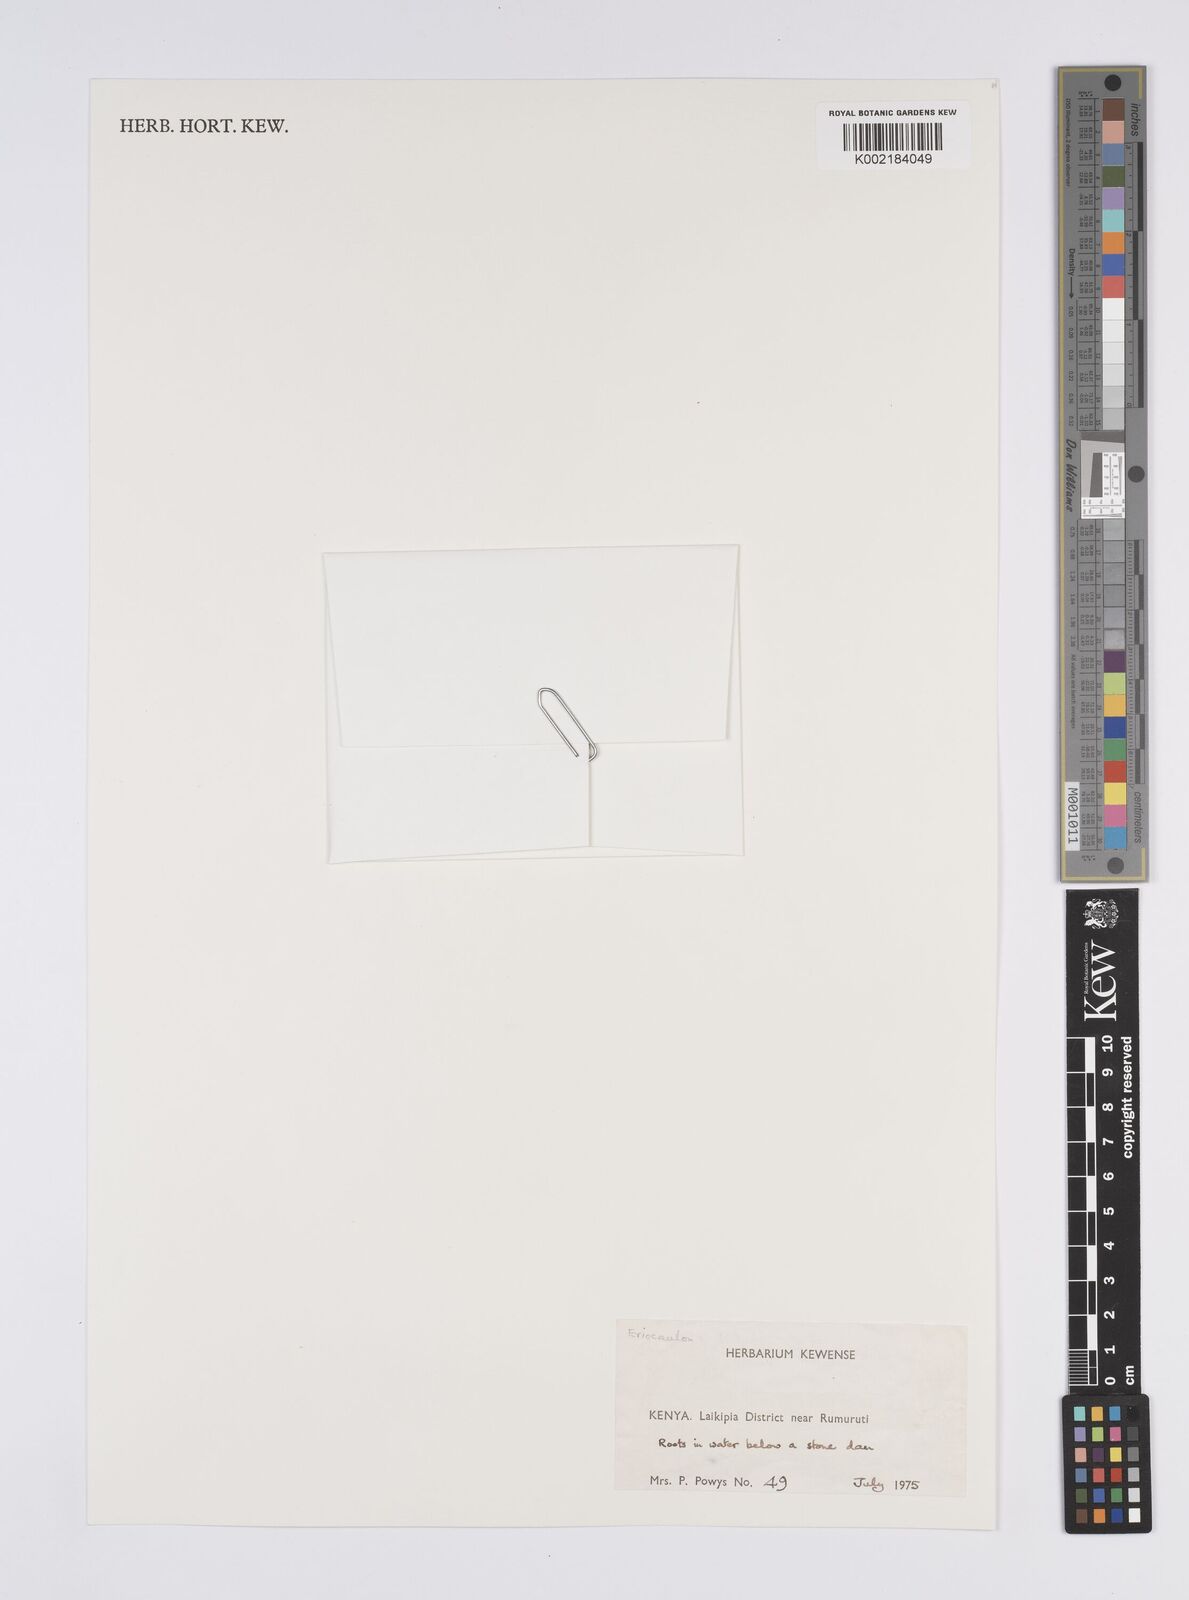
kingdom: Plantae
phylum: Tracheophyta
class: Liliopsida
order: Poales
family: Eriocaulaceae
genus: Eriocaulon
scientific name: Eriocaulon
